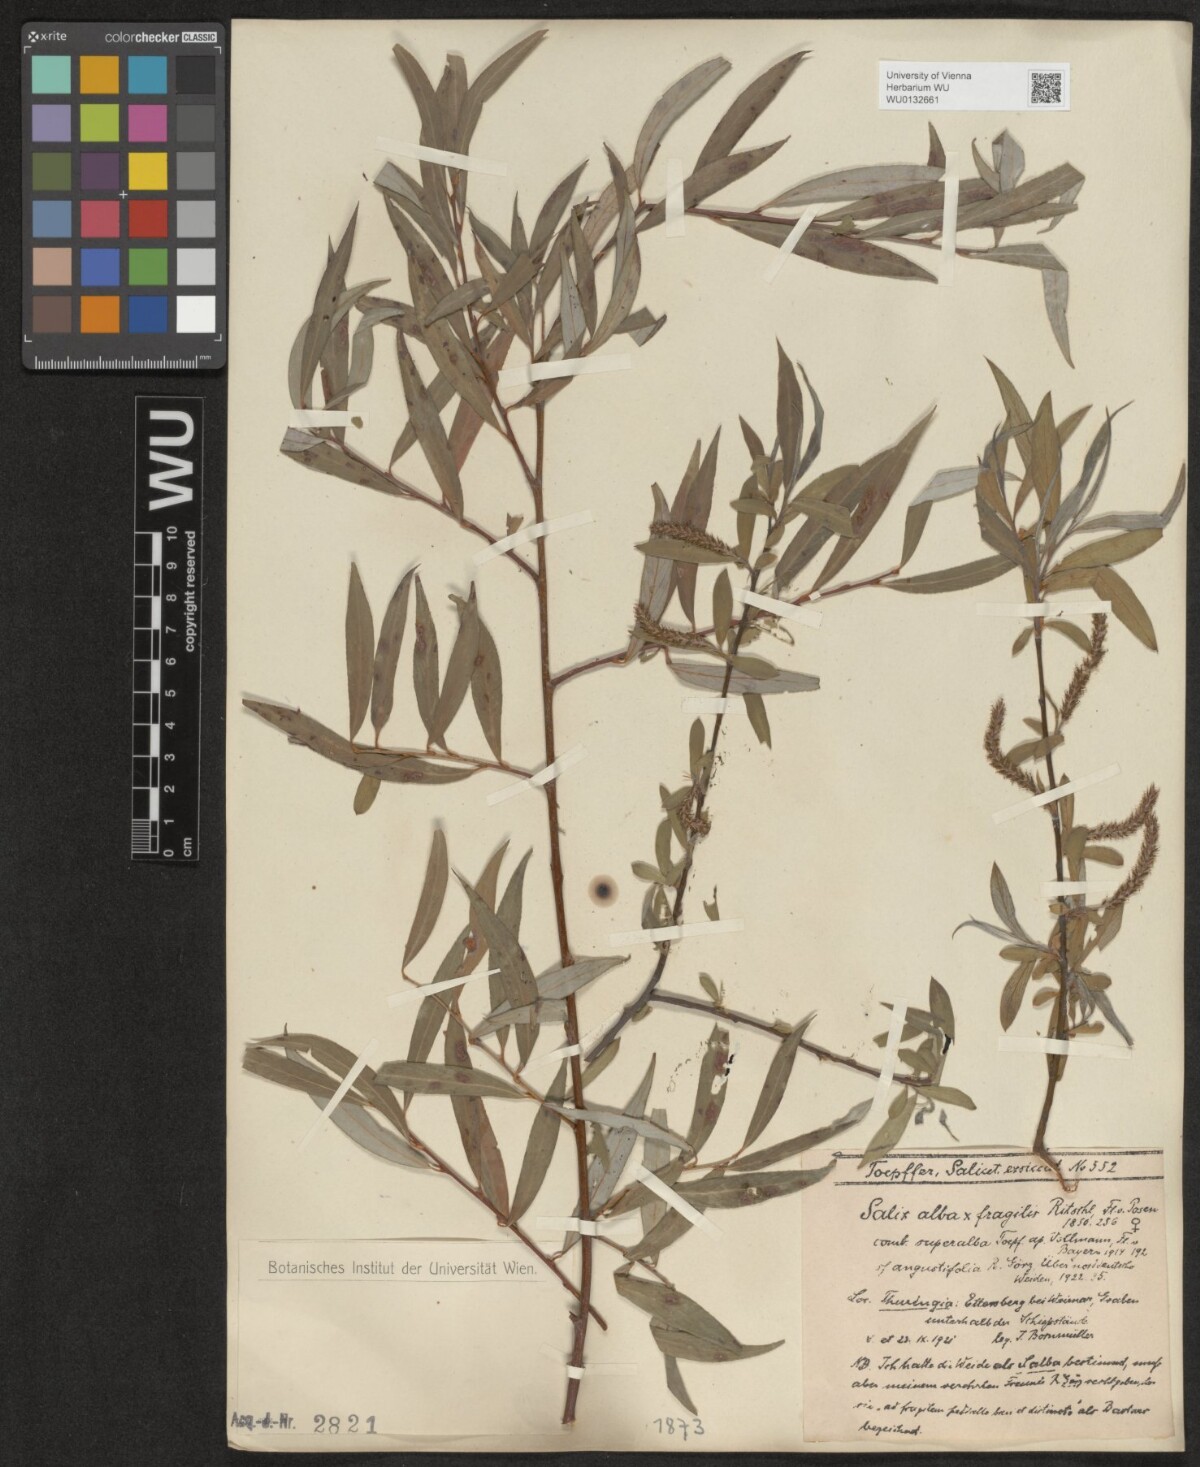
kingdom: Plantae
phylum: Tracheophyta
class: Magnoliopsida
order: Malpighiales
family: Salicaceae
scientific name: Salicaceae
